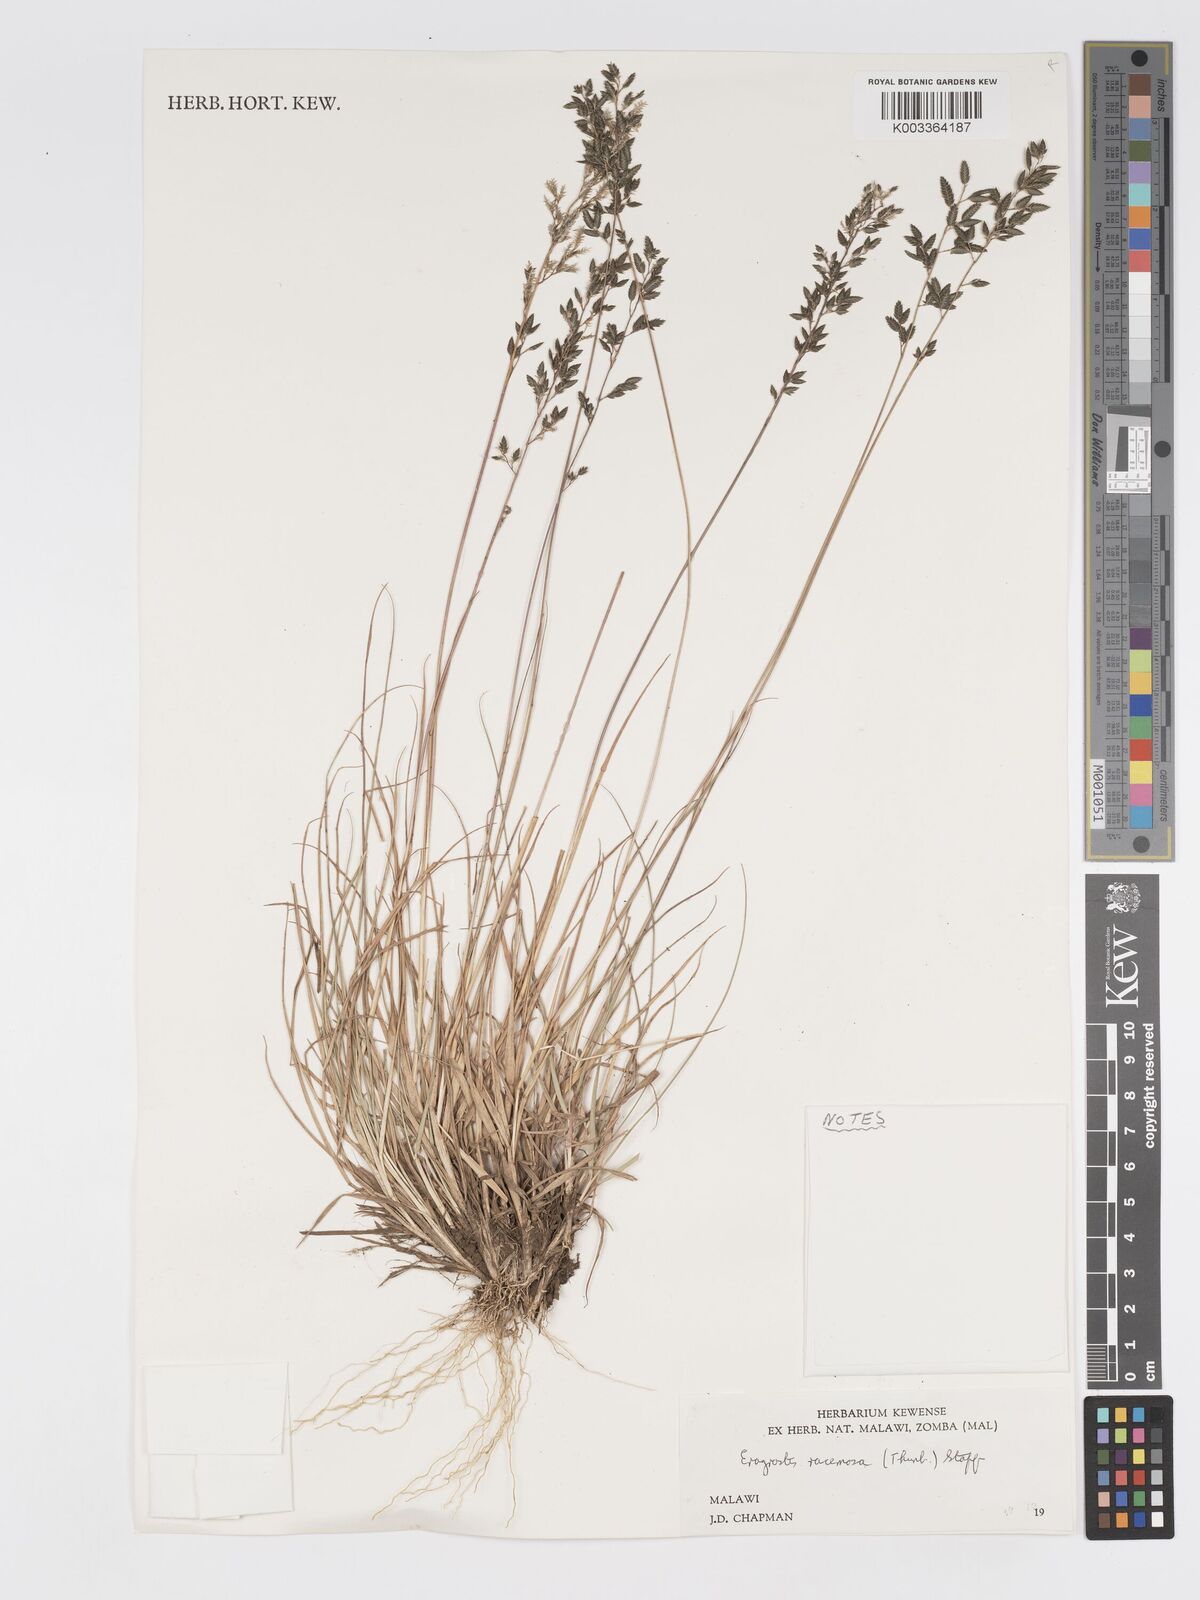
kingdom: Plantae
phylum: Tracheophyta
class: Liliopsida
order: Poales
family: Poaceae
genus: Eragrostis
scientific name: Eragrostis racemosa
